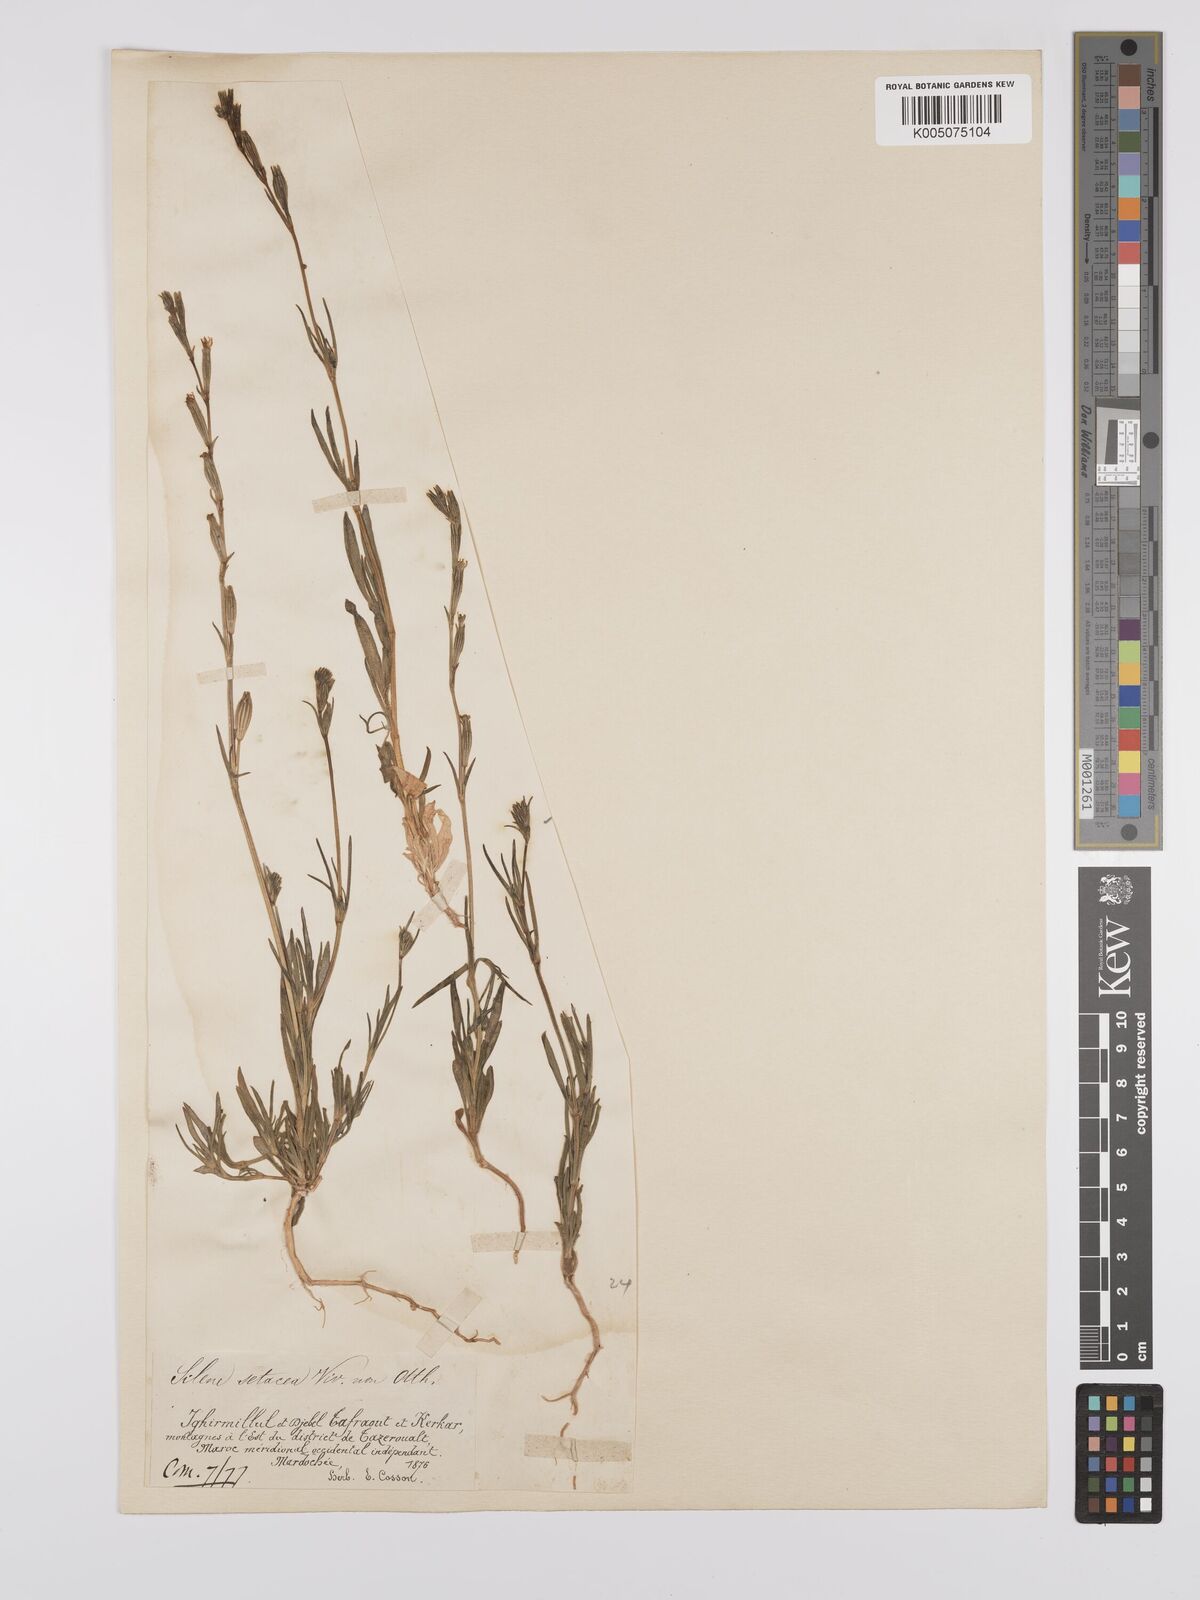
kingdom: Plantae
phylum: Tracheophyta
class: Magnoliopsida
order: Caryophyllales
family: Caryophyllaceae
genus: Silene
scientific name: Silene nicaeensis
